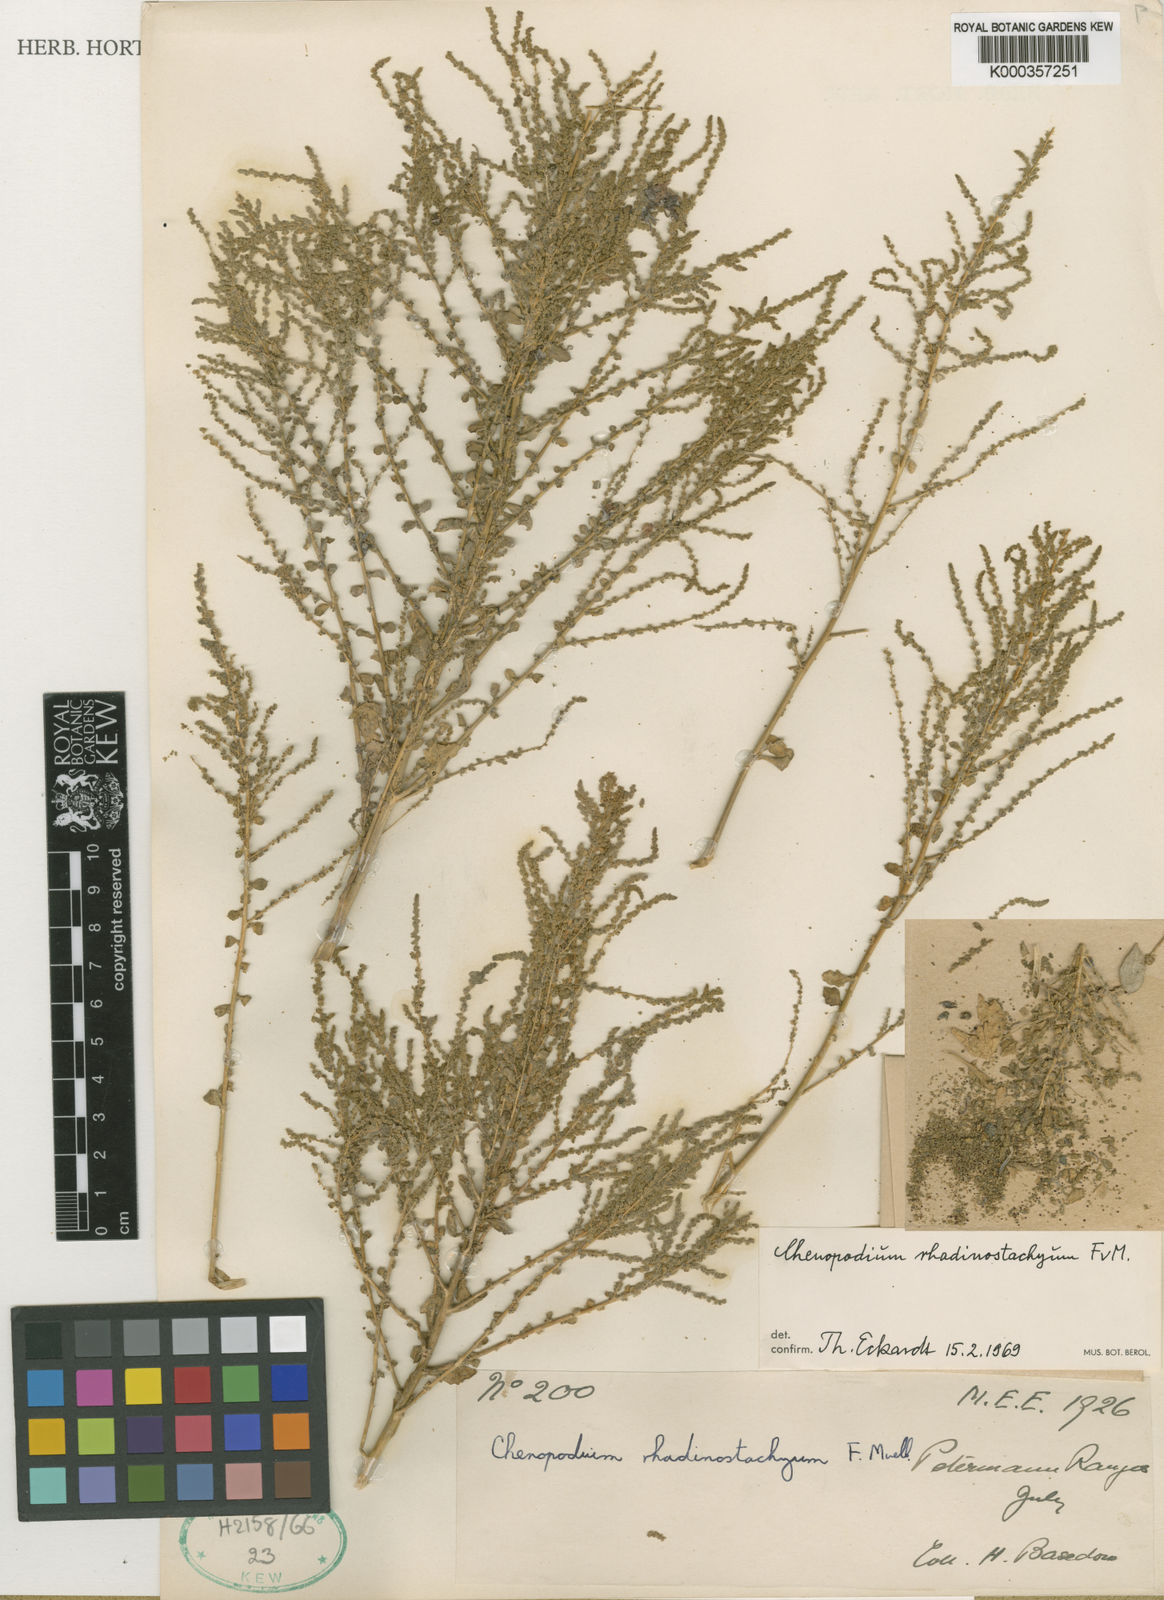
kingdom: Plantae
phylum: Tracheophyta
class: Magnoliopsida
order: Caryophyllales
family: Amaranthaceae
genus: Dysphania
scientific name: Dysphania rhadinostachya
